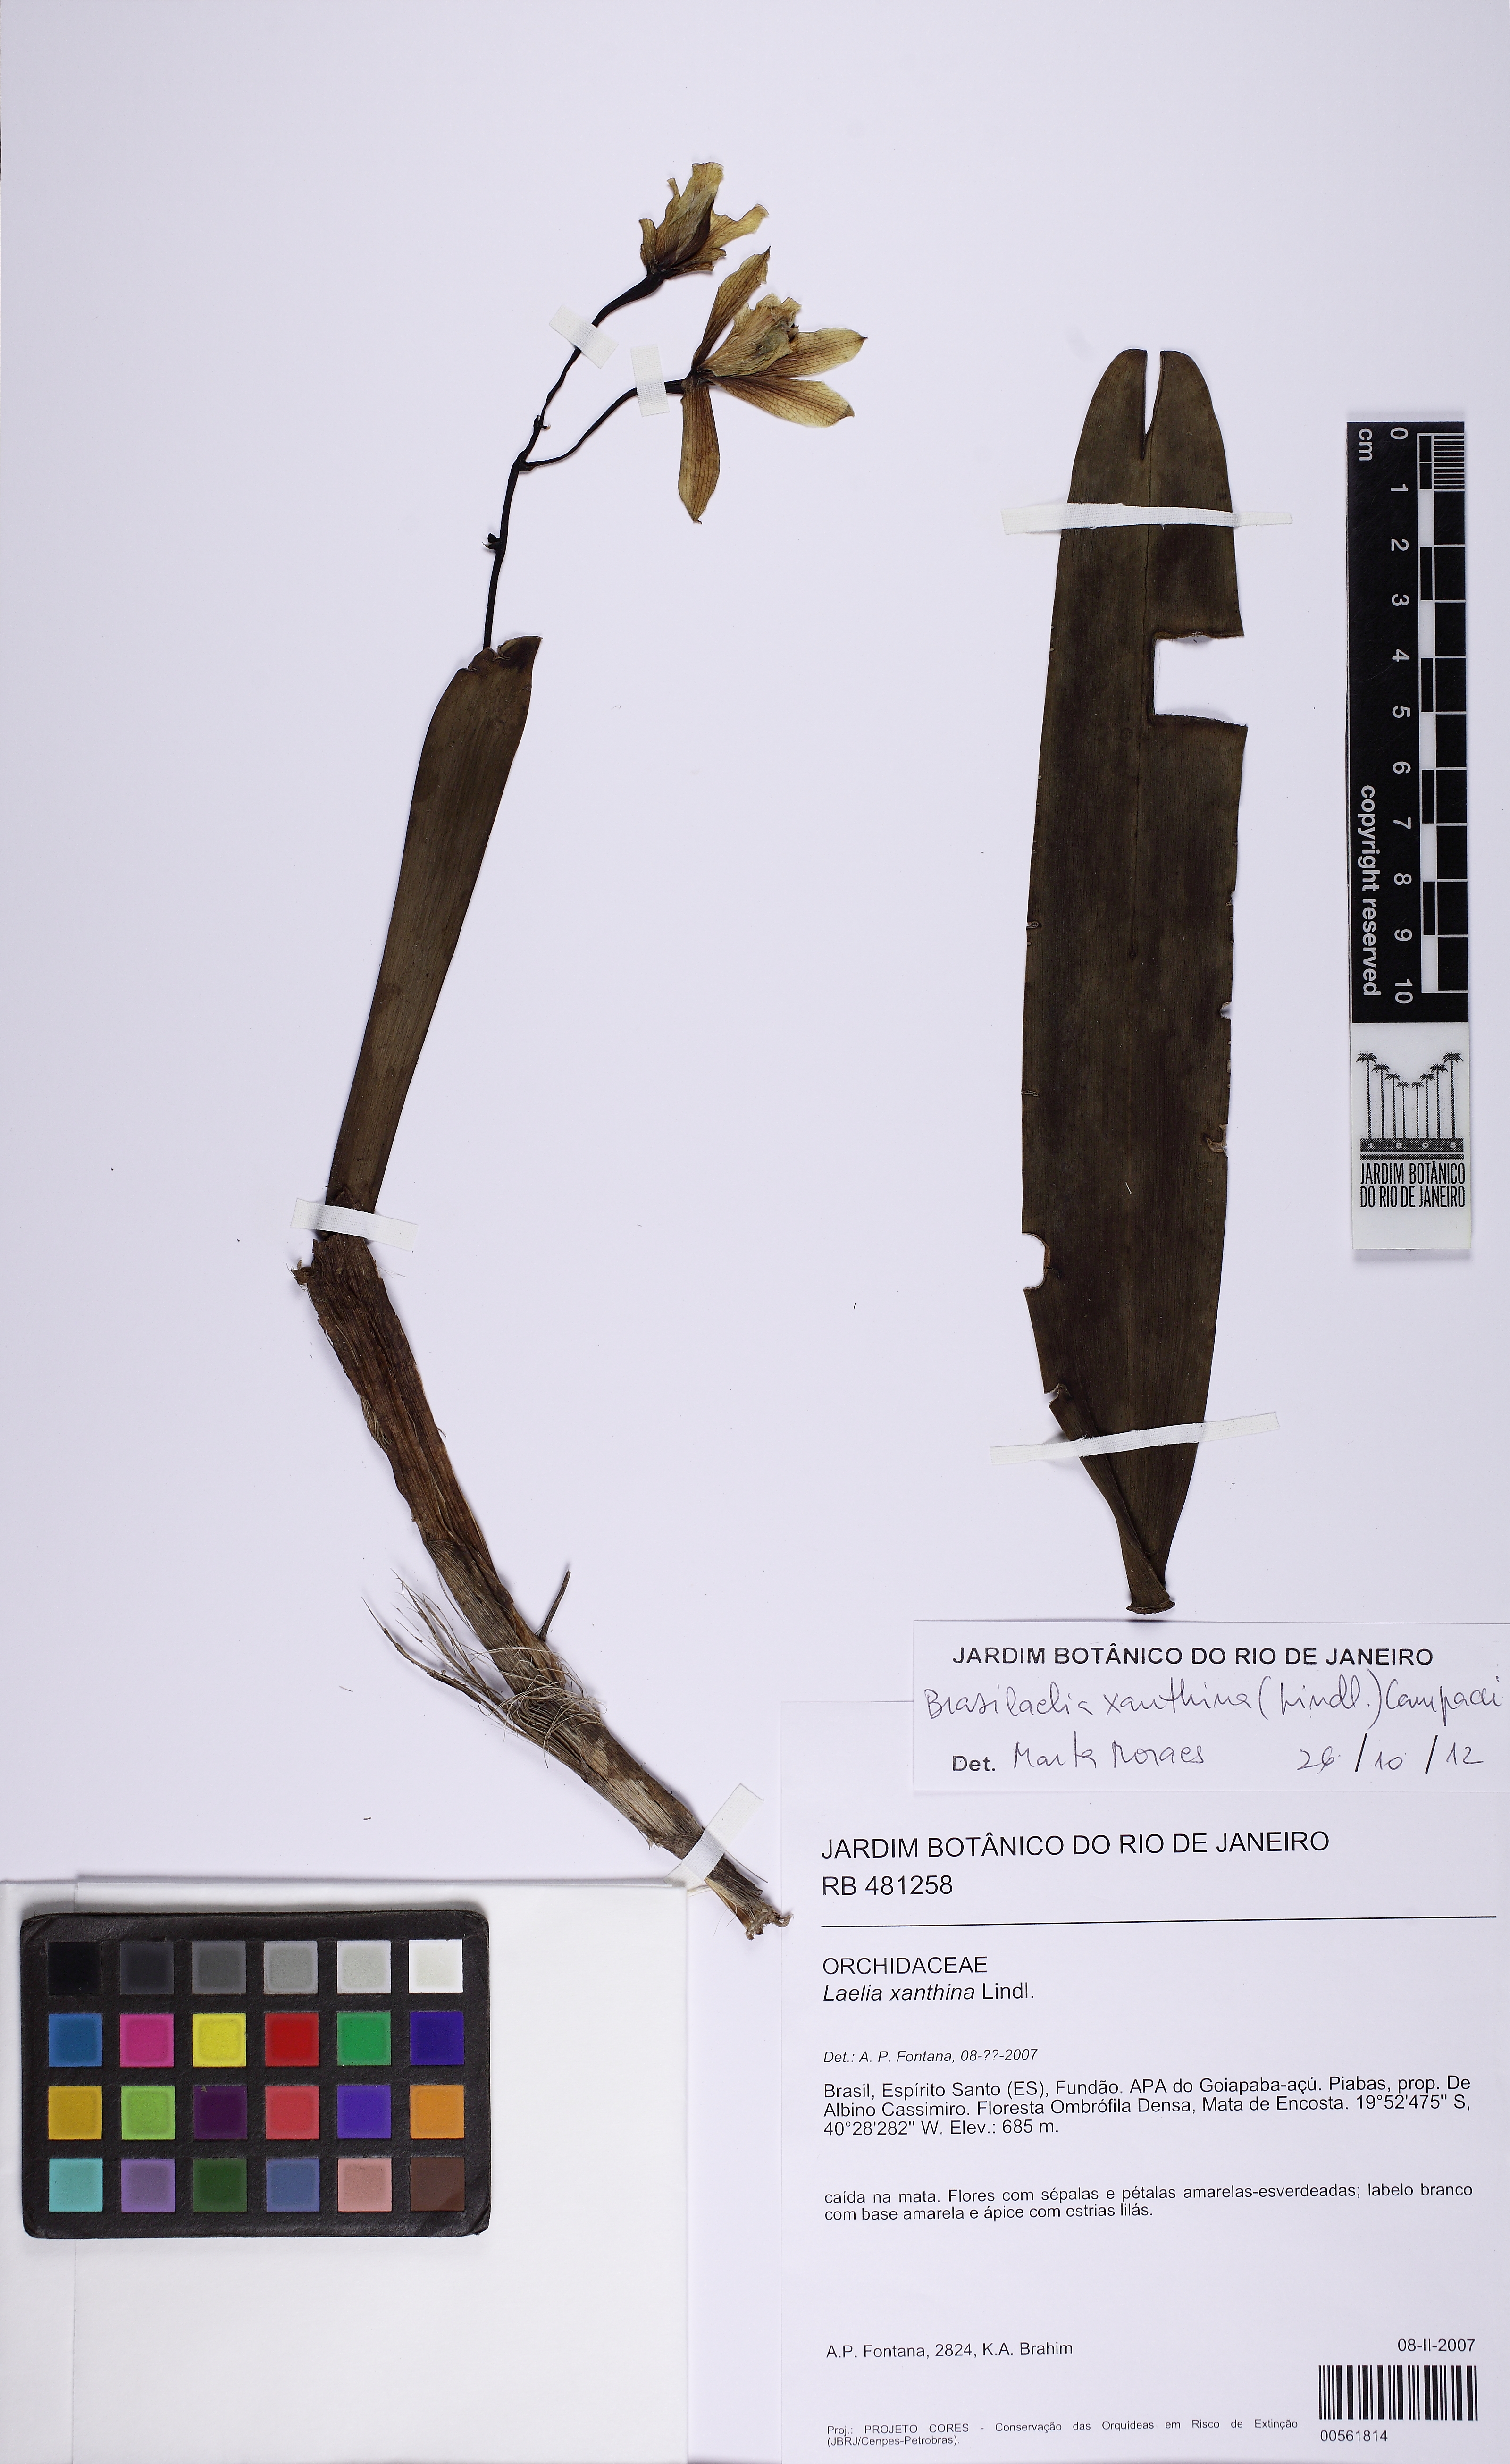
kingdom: Plantae
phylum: Tracheophyta
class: Liliopsida
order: Asparagales
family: Orchidaceae
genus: Cattleya
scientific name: Cattleya xanthina
